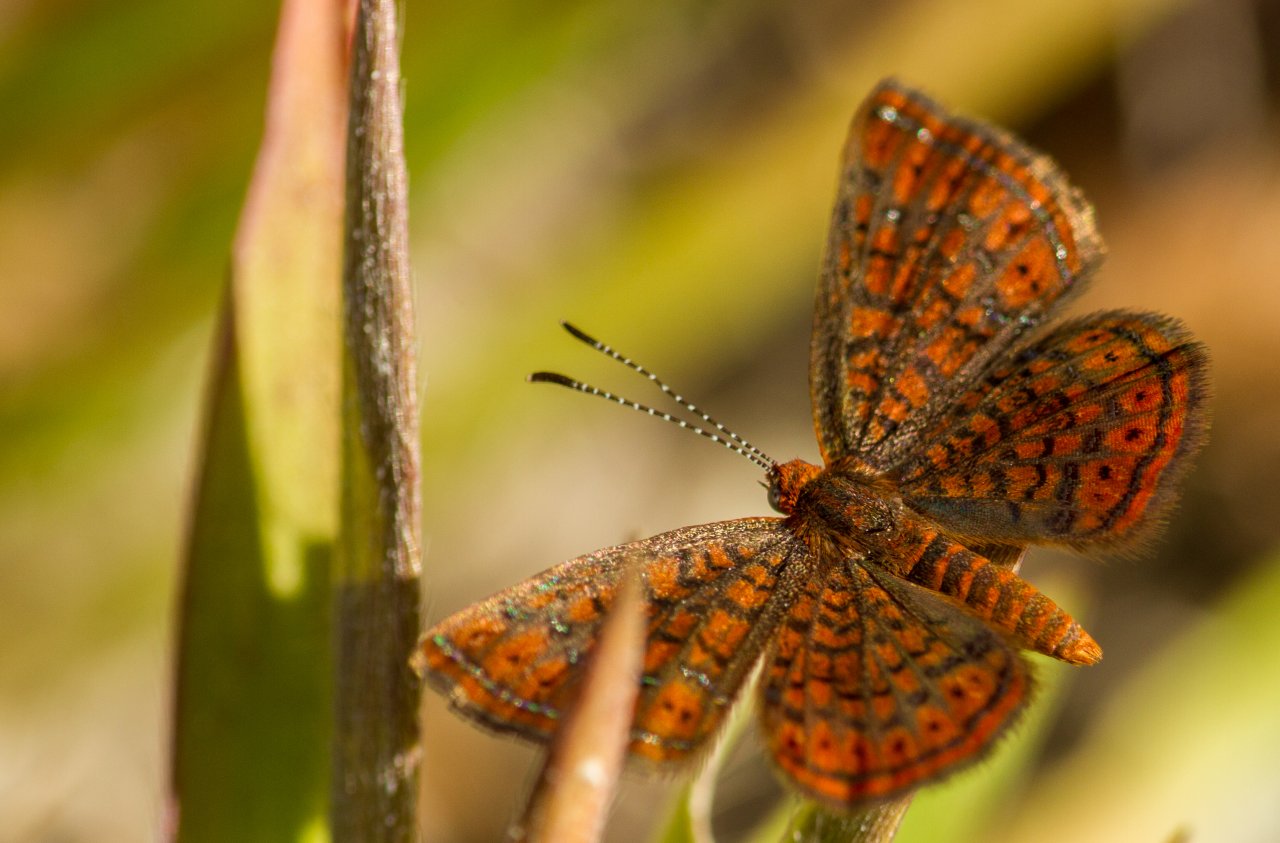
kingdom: Animalia
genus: Calephelis
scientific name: Calephelis virginiensis
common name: Little Metalmark
